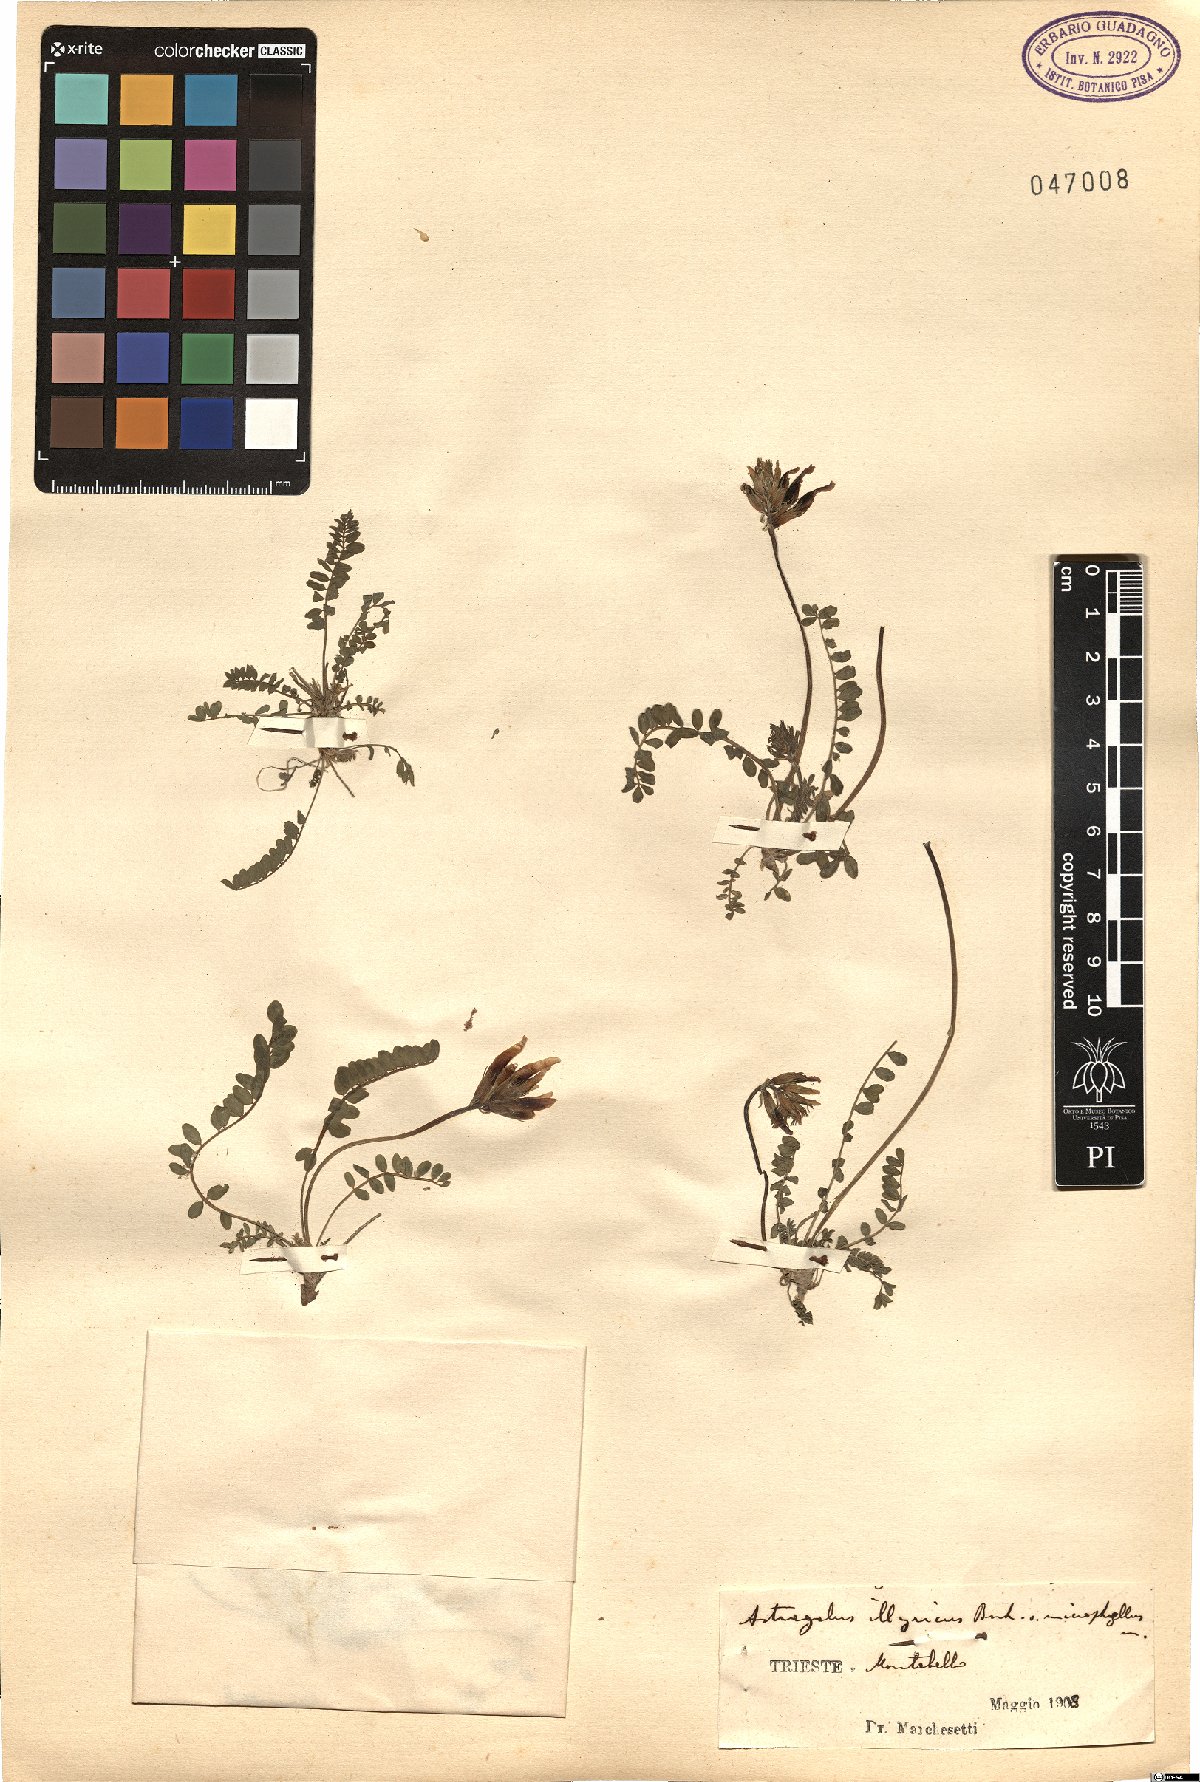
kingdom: Plantae
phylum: Tracheophyta
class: Magnoliopsida
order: Fabales
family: Fabaceae
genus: Astragalus
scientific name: Astragalus monspessulanus
